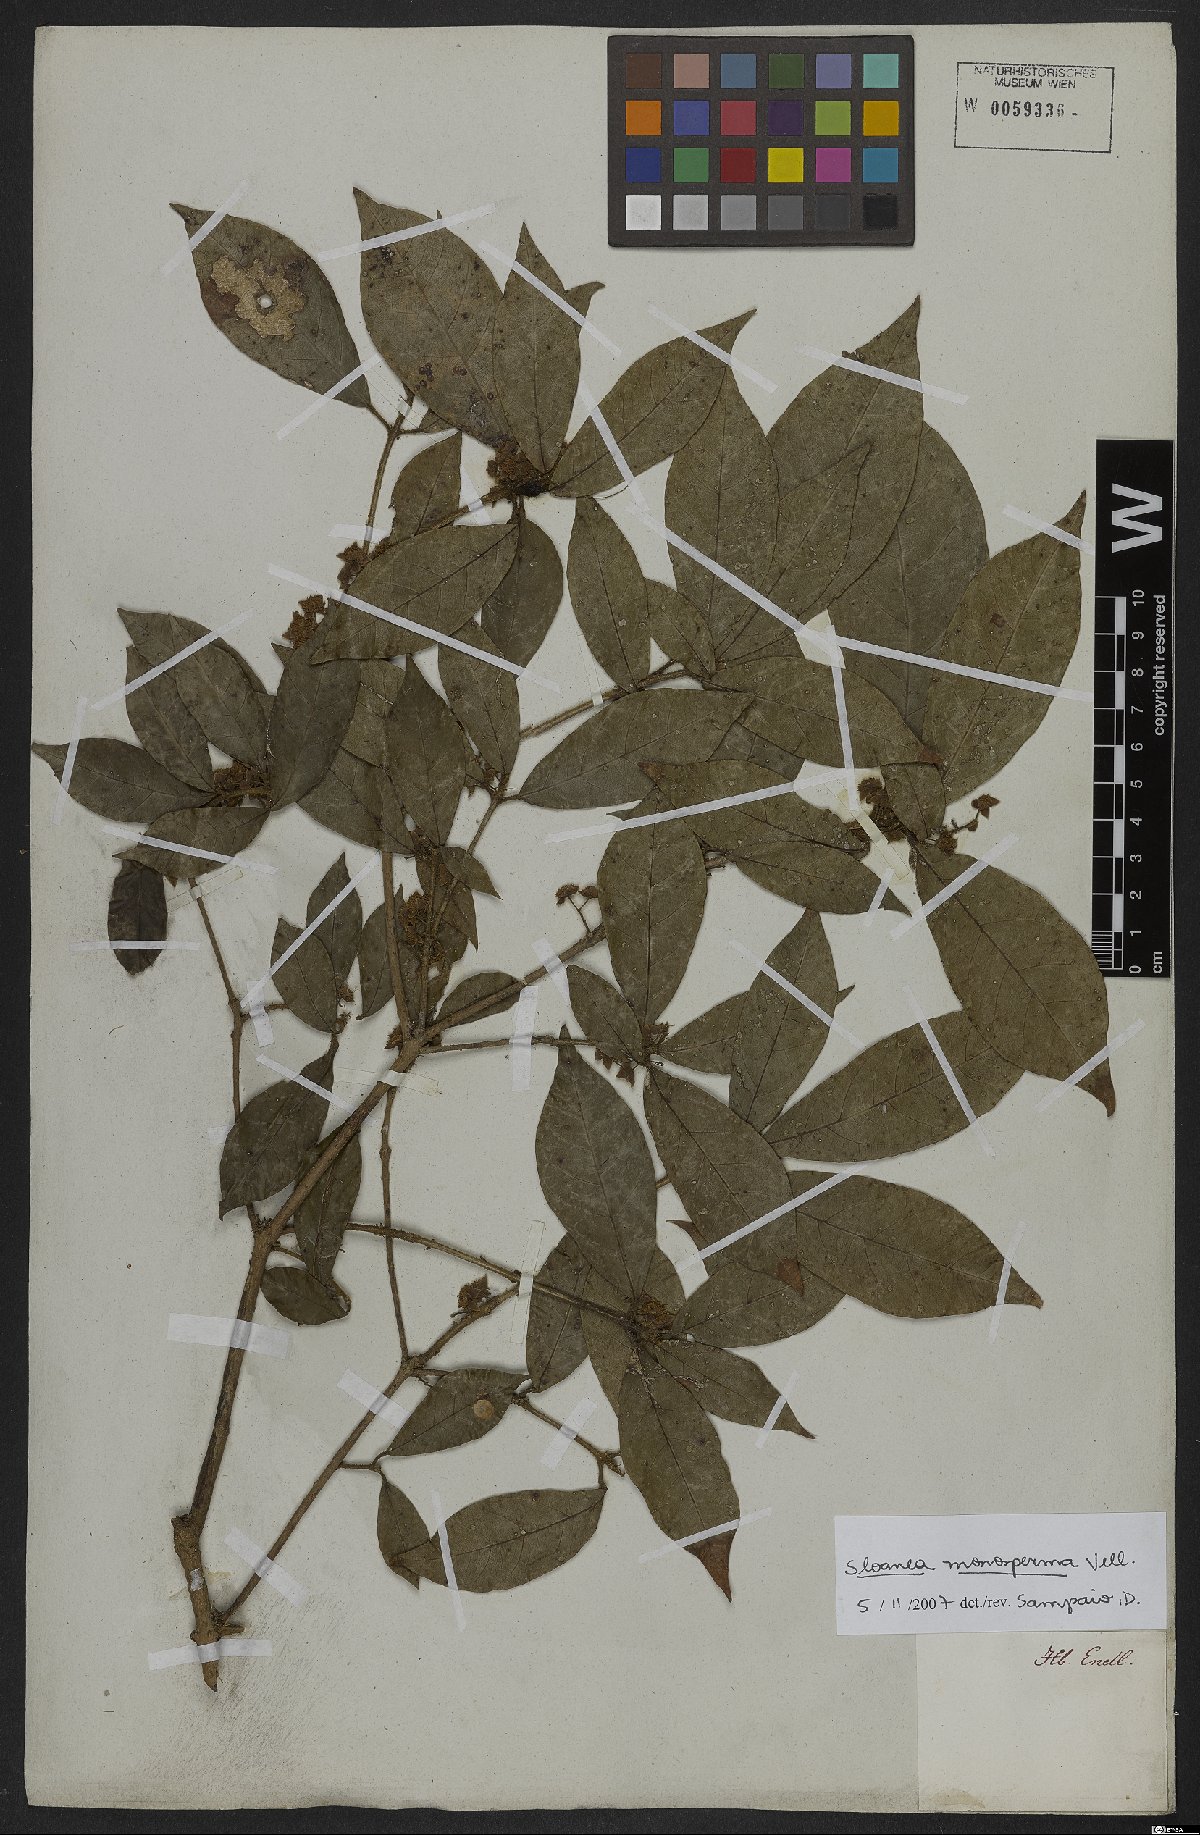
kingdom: Plantae
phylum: Tracheophyta
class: Magnoliopsida
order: Oxalidales
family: Elaeocarpaceae
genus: Sloanea
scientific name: Sloanea hirsuta
